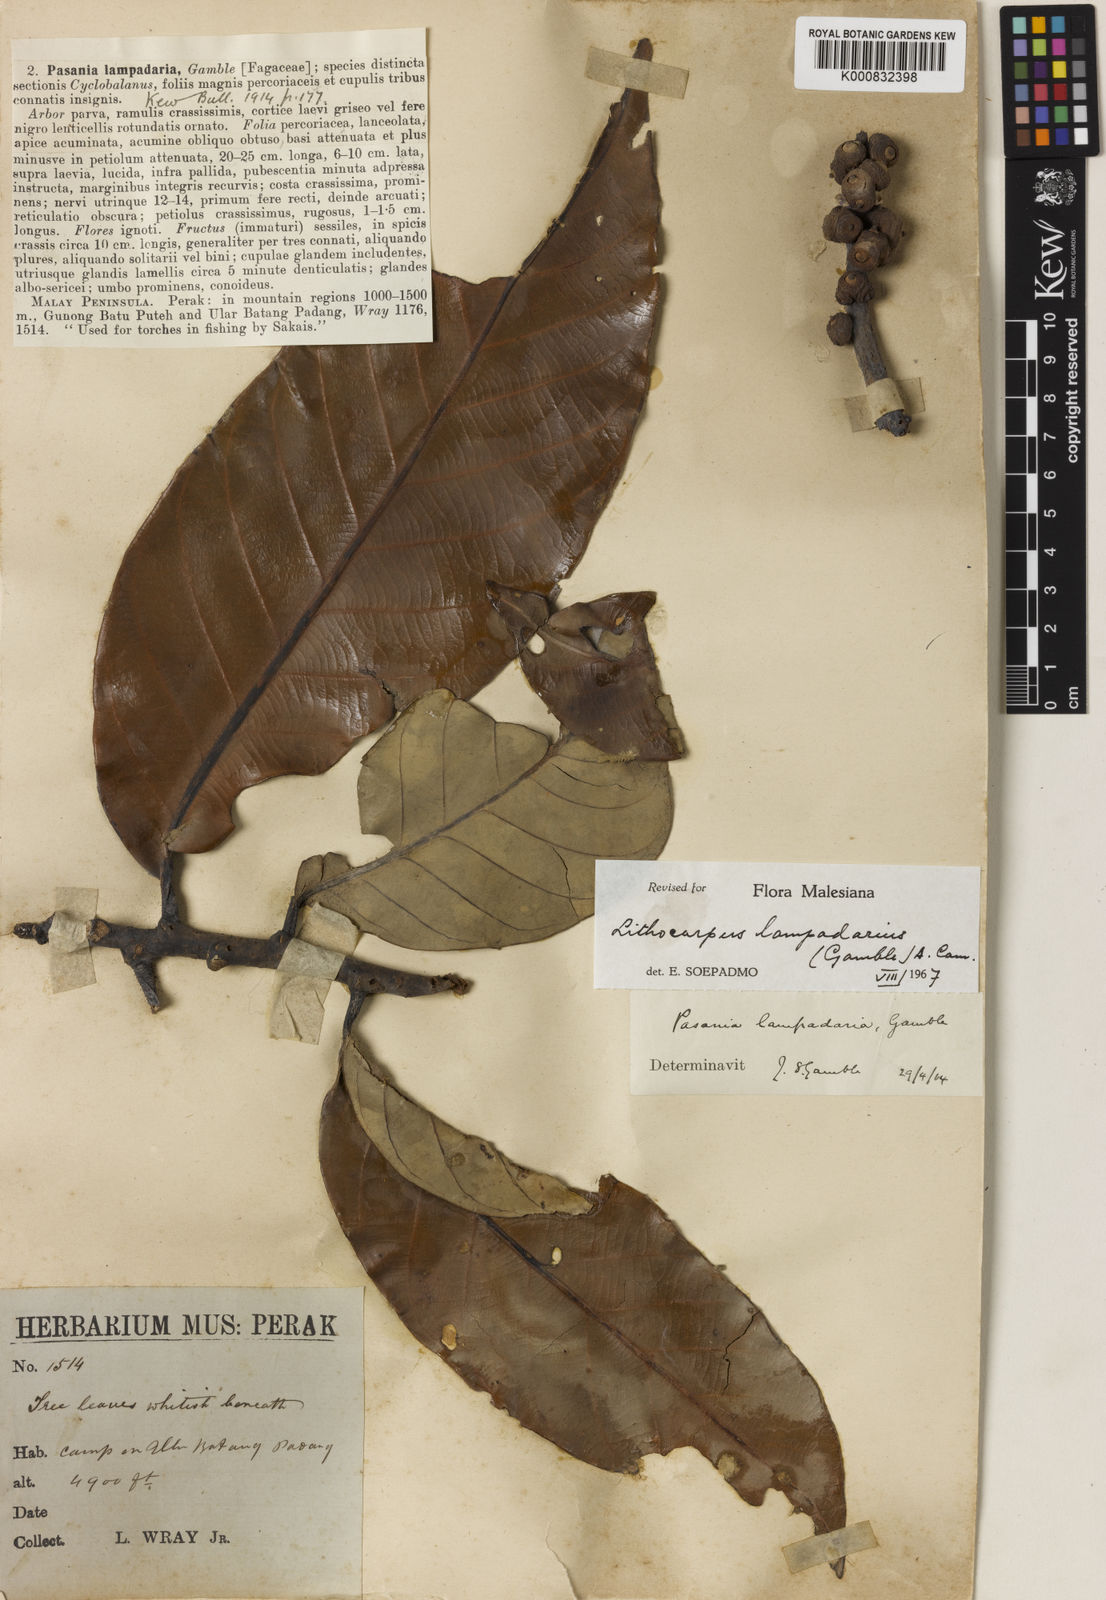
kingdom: Plantae
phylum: Tracheophyta
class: Magnoliopsida
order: Fagales
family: Fagaceae
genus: Lithocarpus
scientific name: Lithocarpus lampadarius
